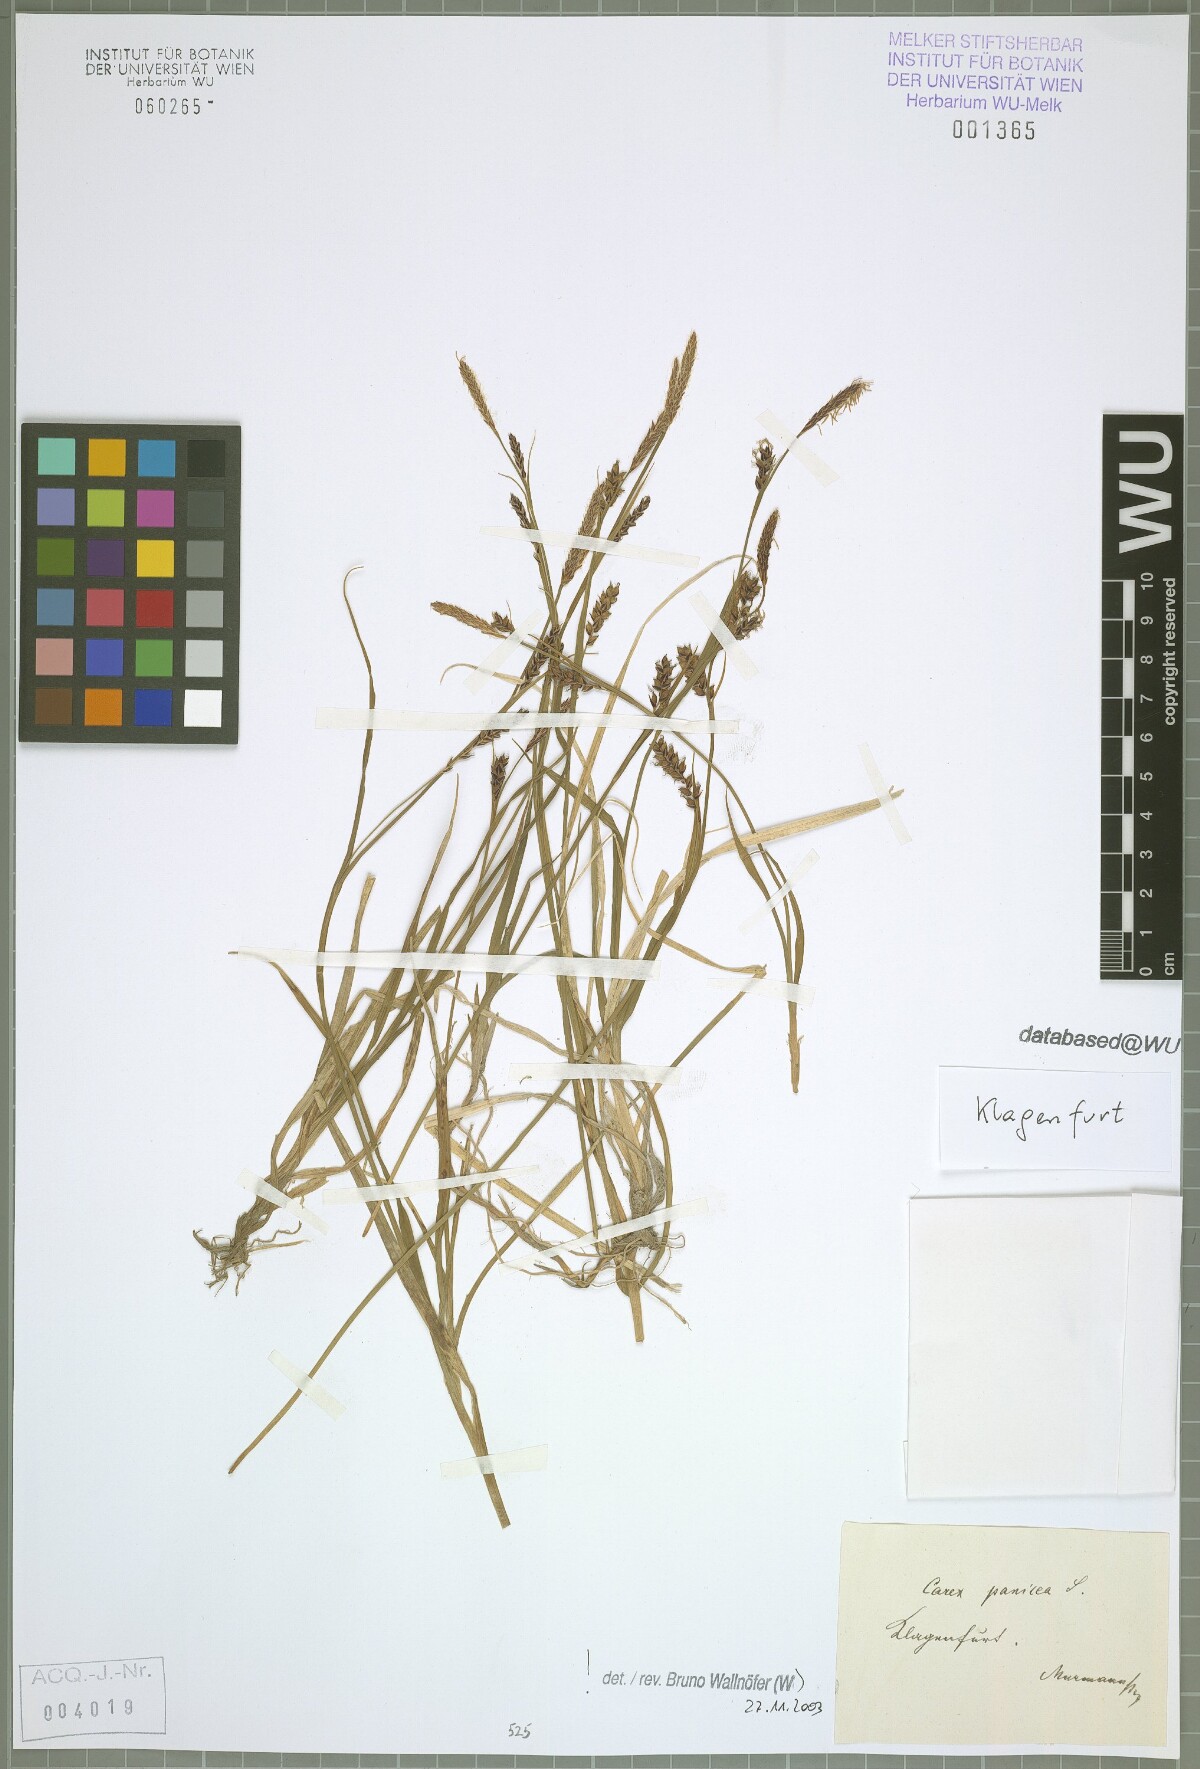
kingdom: Plantae
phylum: Tracheophyta
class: Liliopsida
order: Poales
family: Cyperaceae
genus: Carex
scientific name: Carex panicea
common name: Carnation sedge
